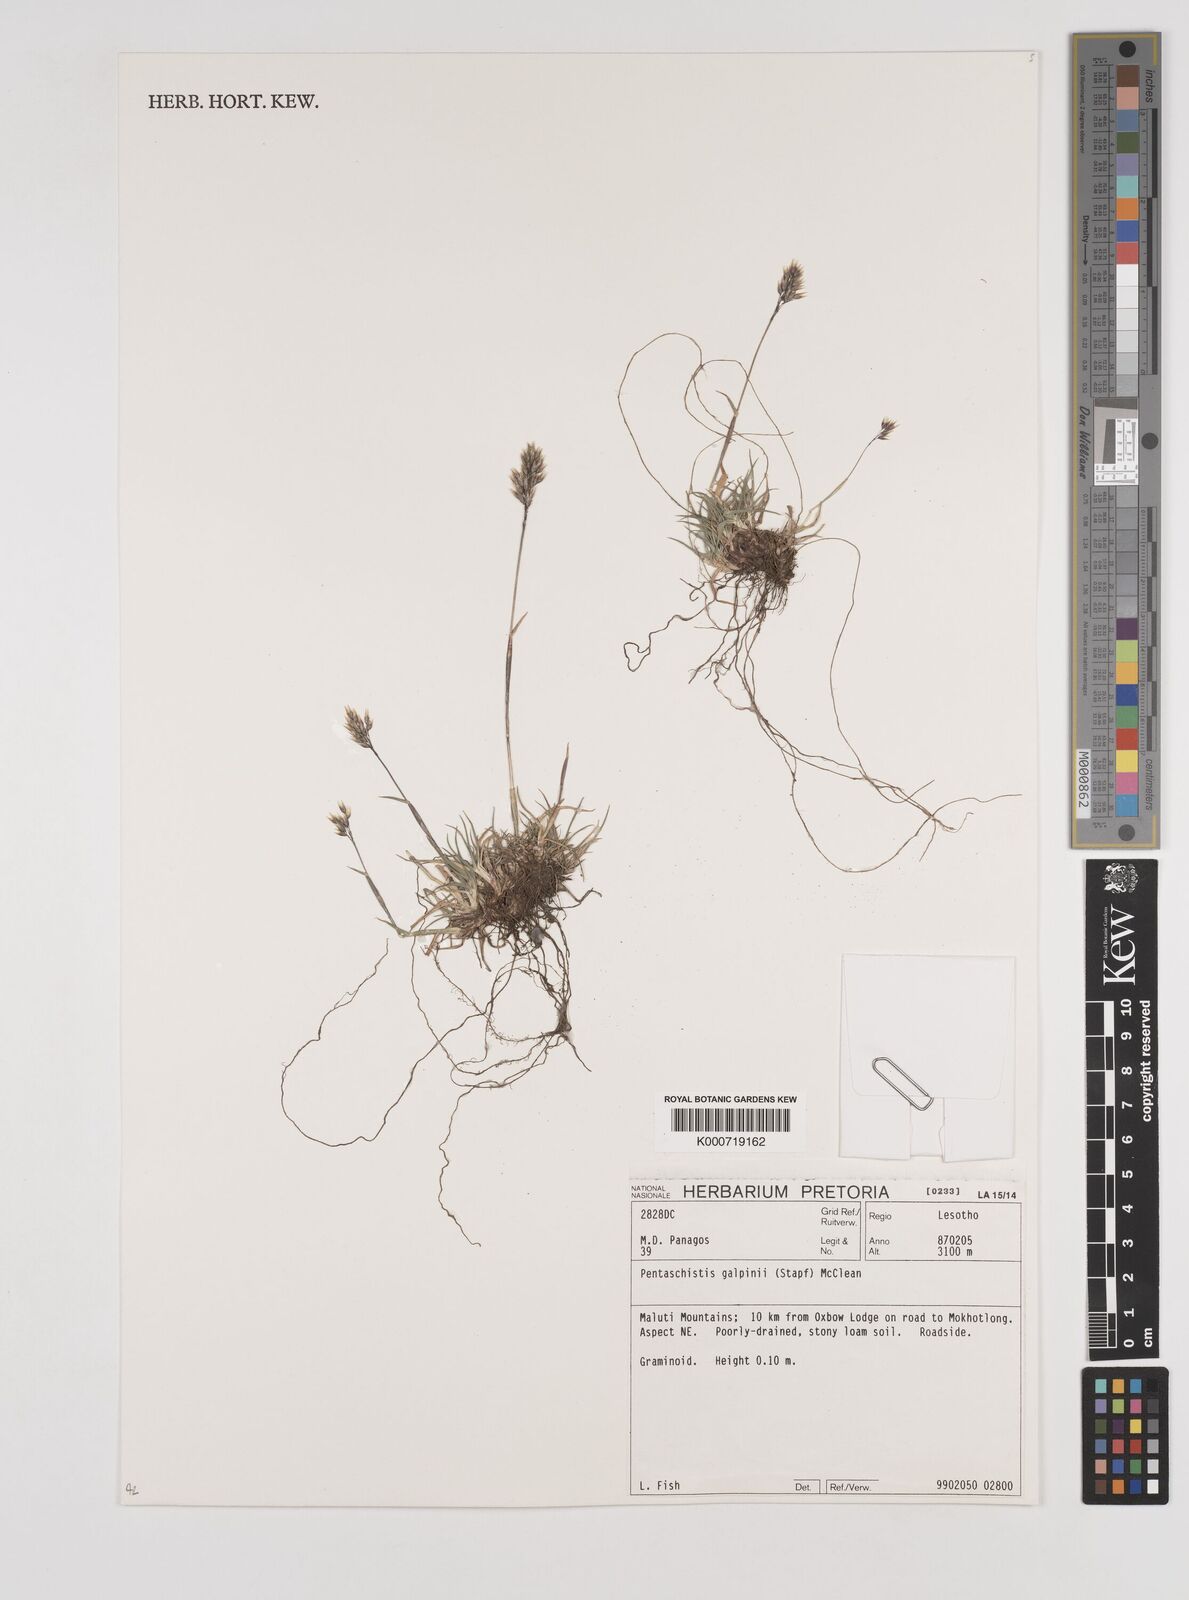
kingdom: Plantae
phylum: Tracheophyta
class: Liliopsida
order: Poales
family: Poaceae
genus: Pentameris
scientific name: Pentameris galpinii
